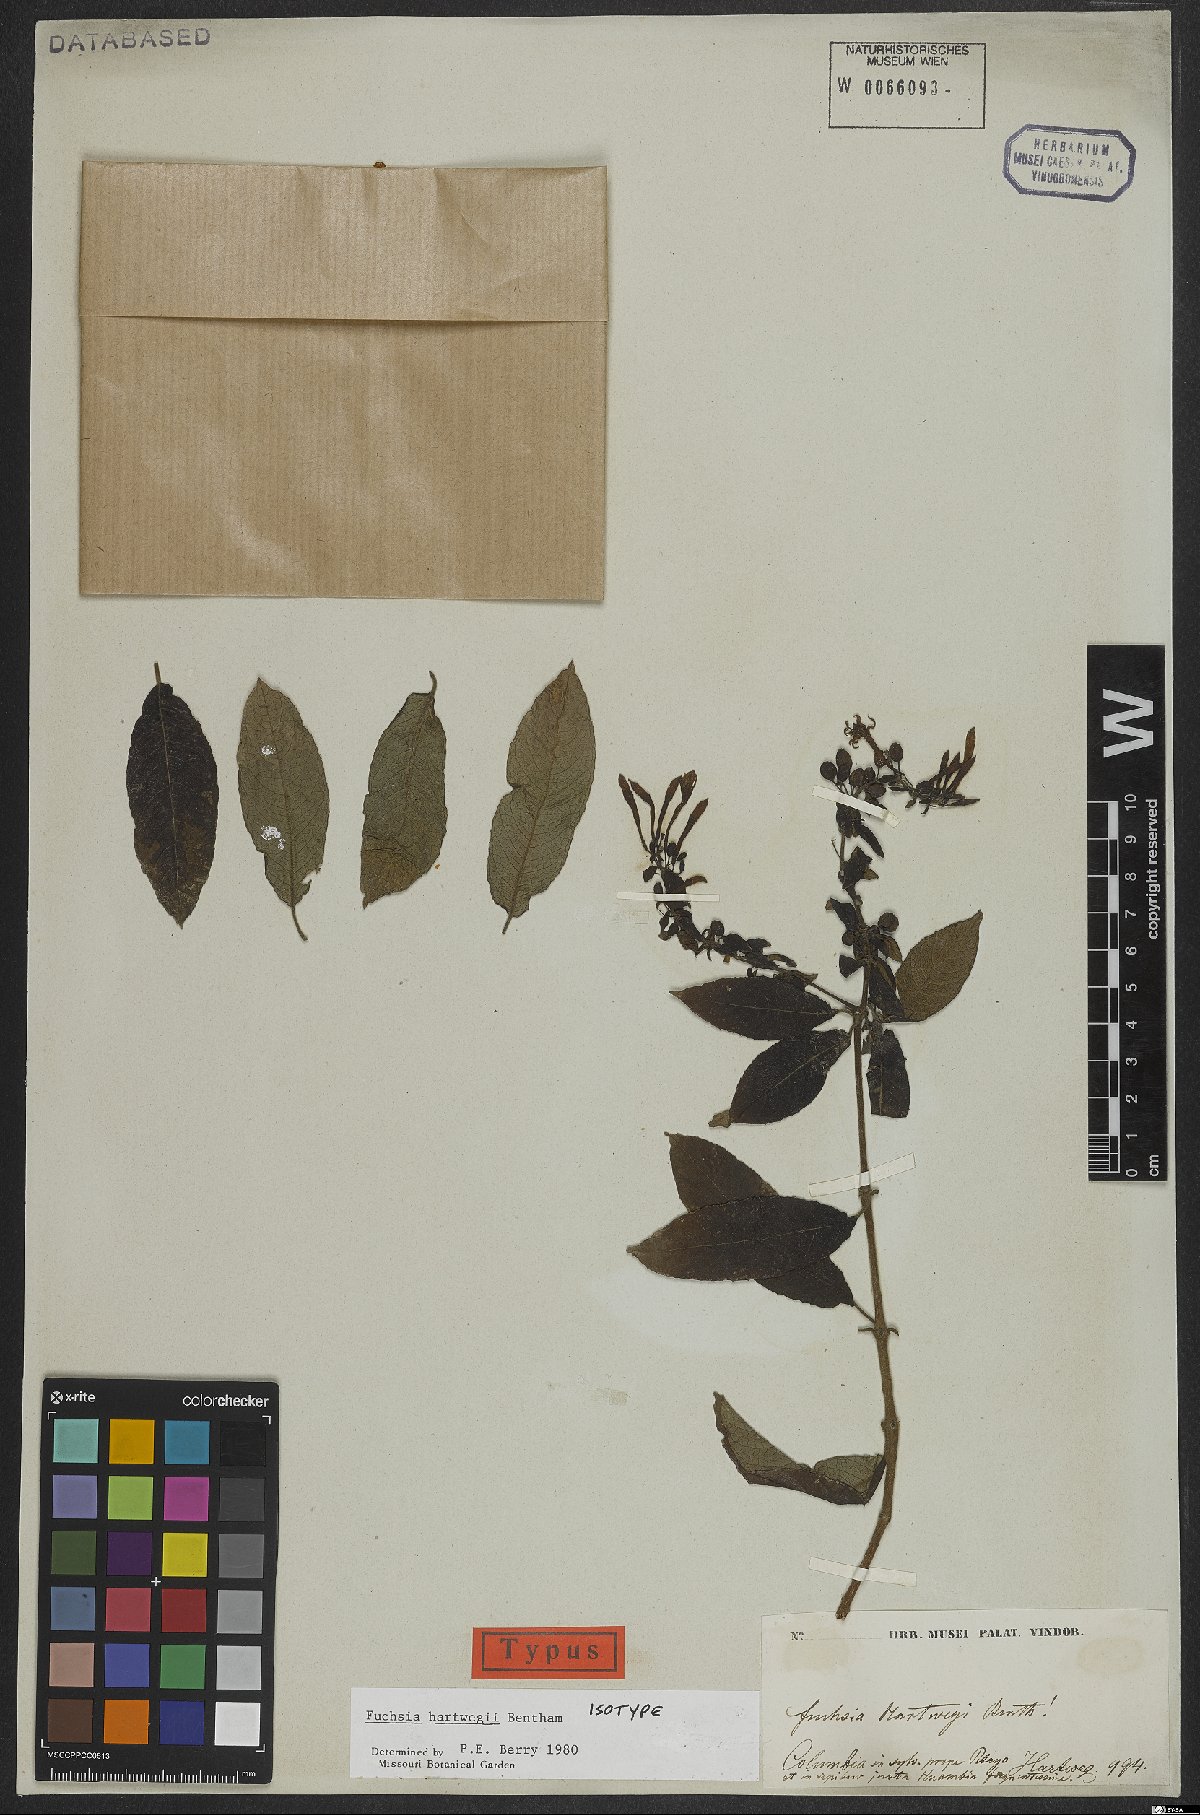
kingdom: Plantae
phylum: Tracheophyta
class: Magnoliopsida
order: Myrtales
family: Onagraceae
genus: Fuchsia
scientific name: Fuchsia hartwegii
